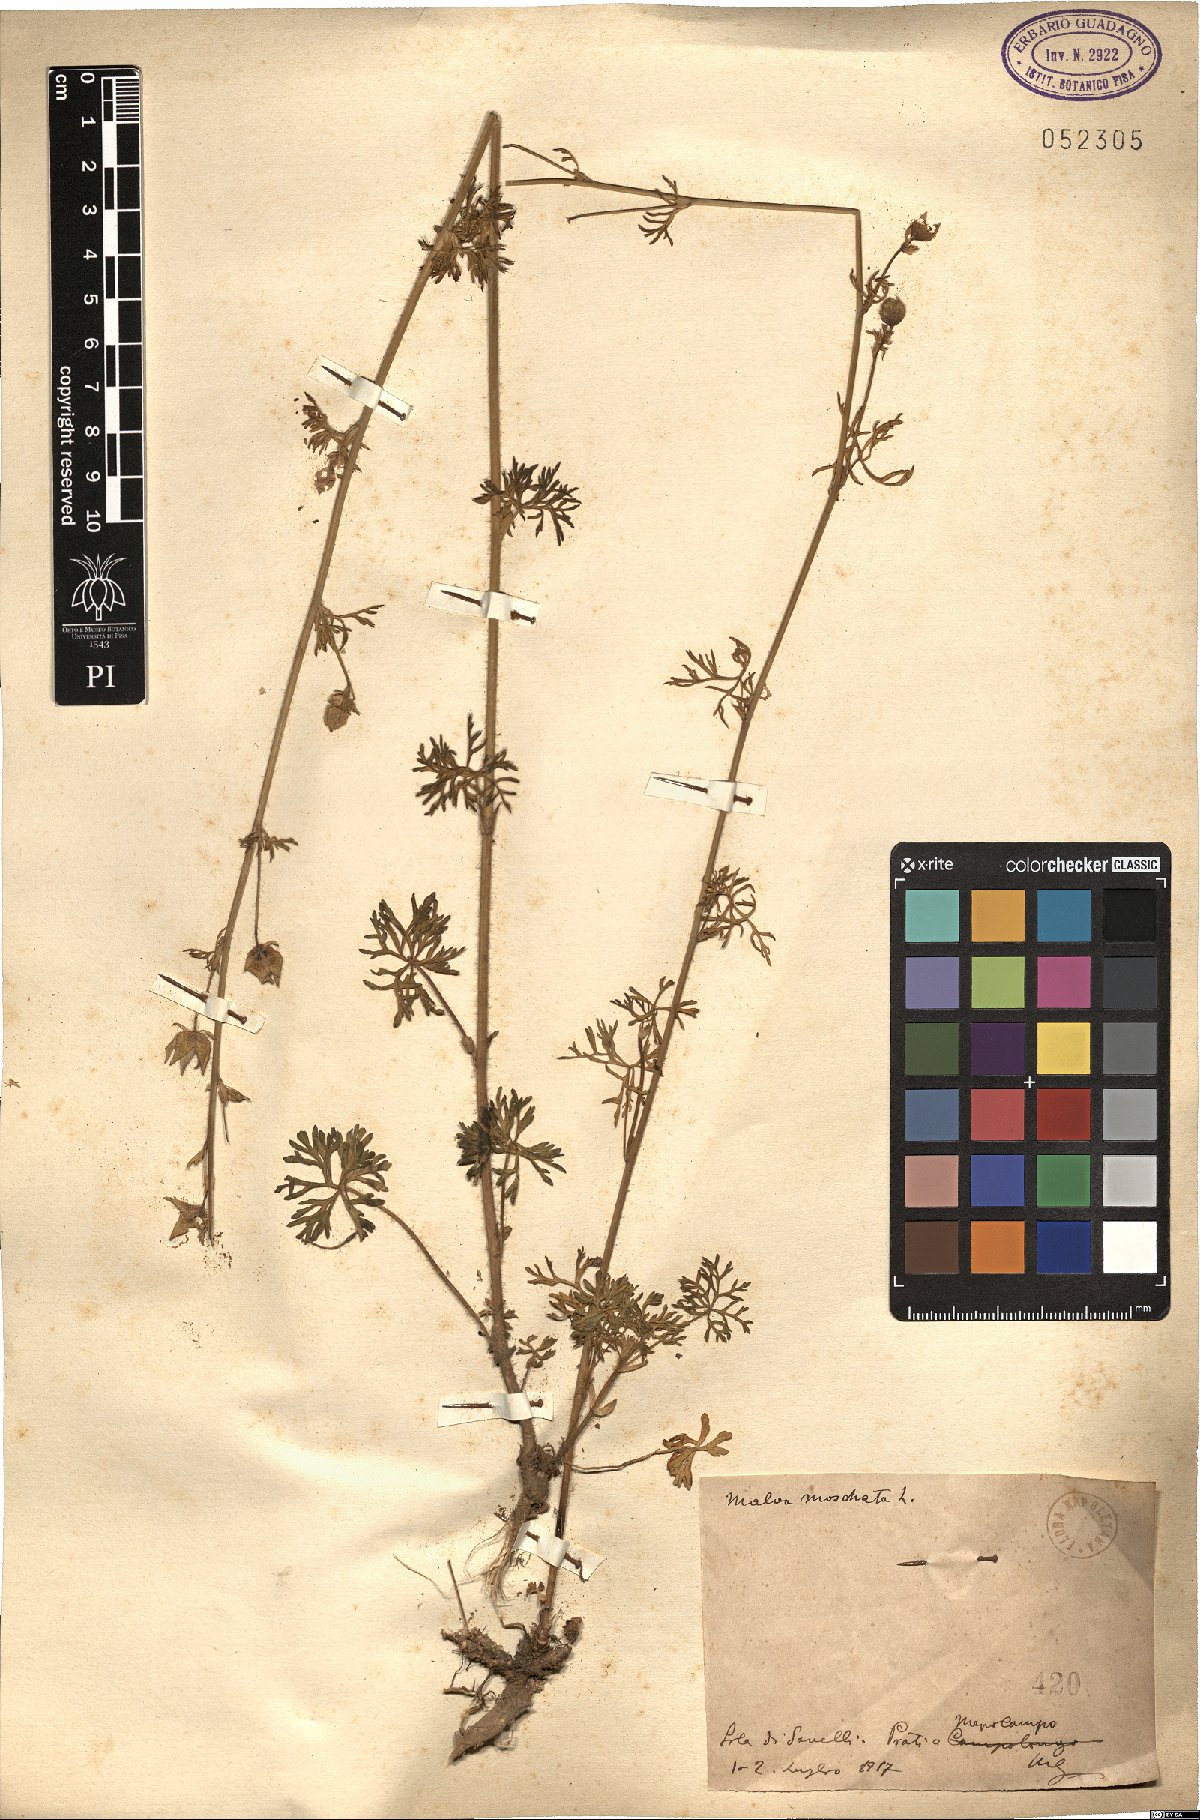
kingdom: Plantae
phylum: Tracheophyta
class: Magnoliopsida
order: Malvales
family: Malvaceae
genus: Malva
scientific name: Malva moschata
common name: Musk mallow
